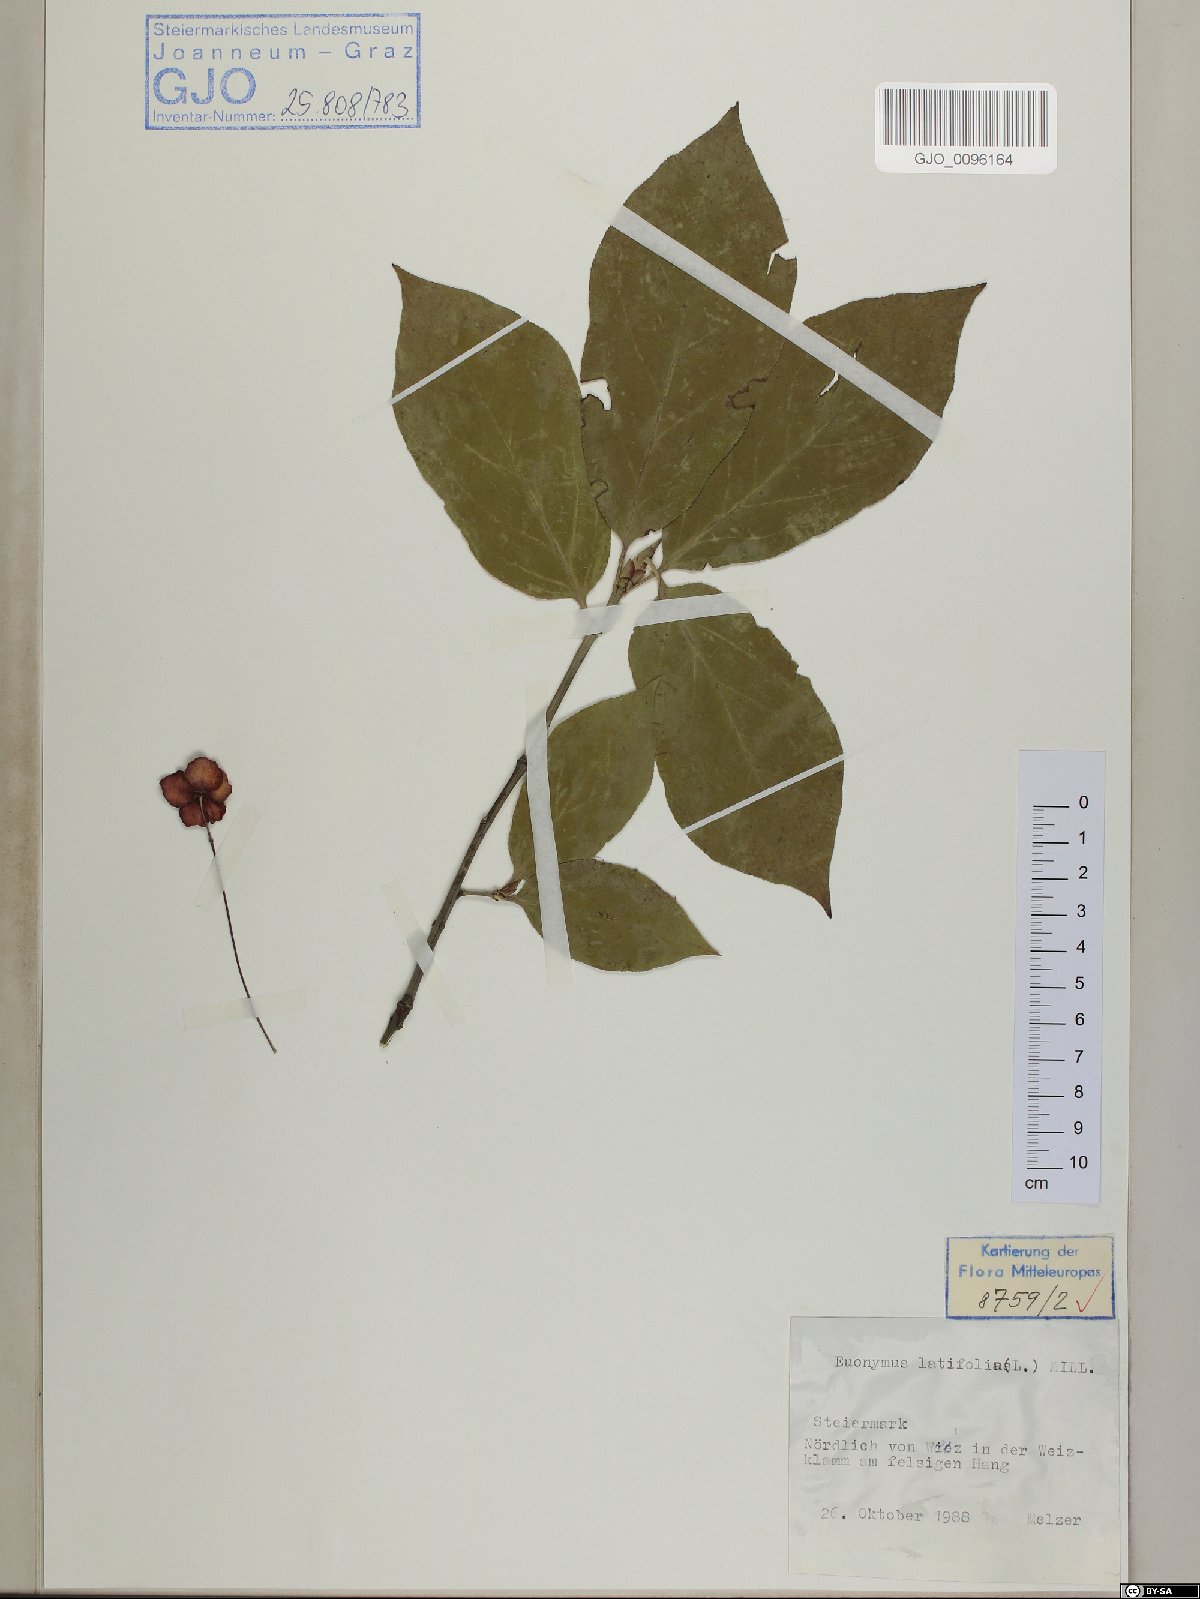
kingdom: Plantae
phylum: Tracheophyta
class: Magnoliopsida
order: Celastrales
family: Celastraceae
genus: Euonymus
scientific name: Euonymus latifolius
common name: Large-leaved spindle
